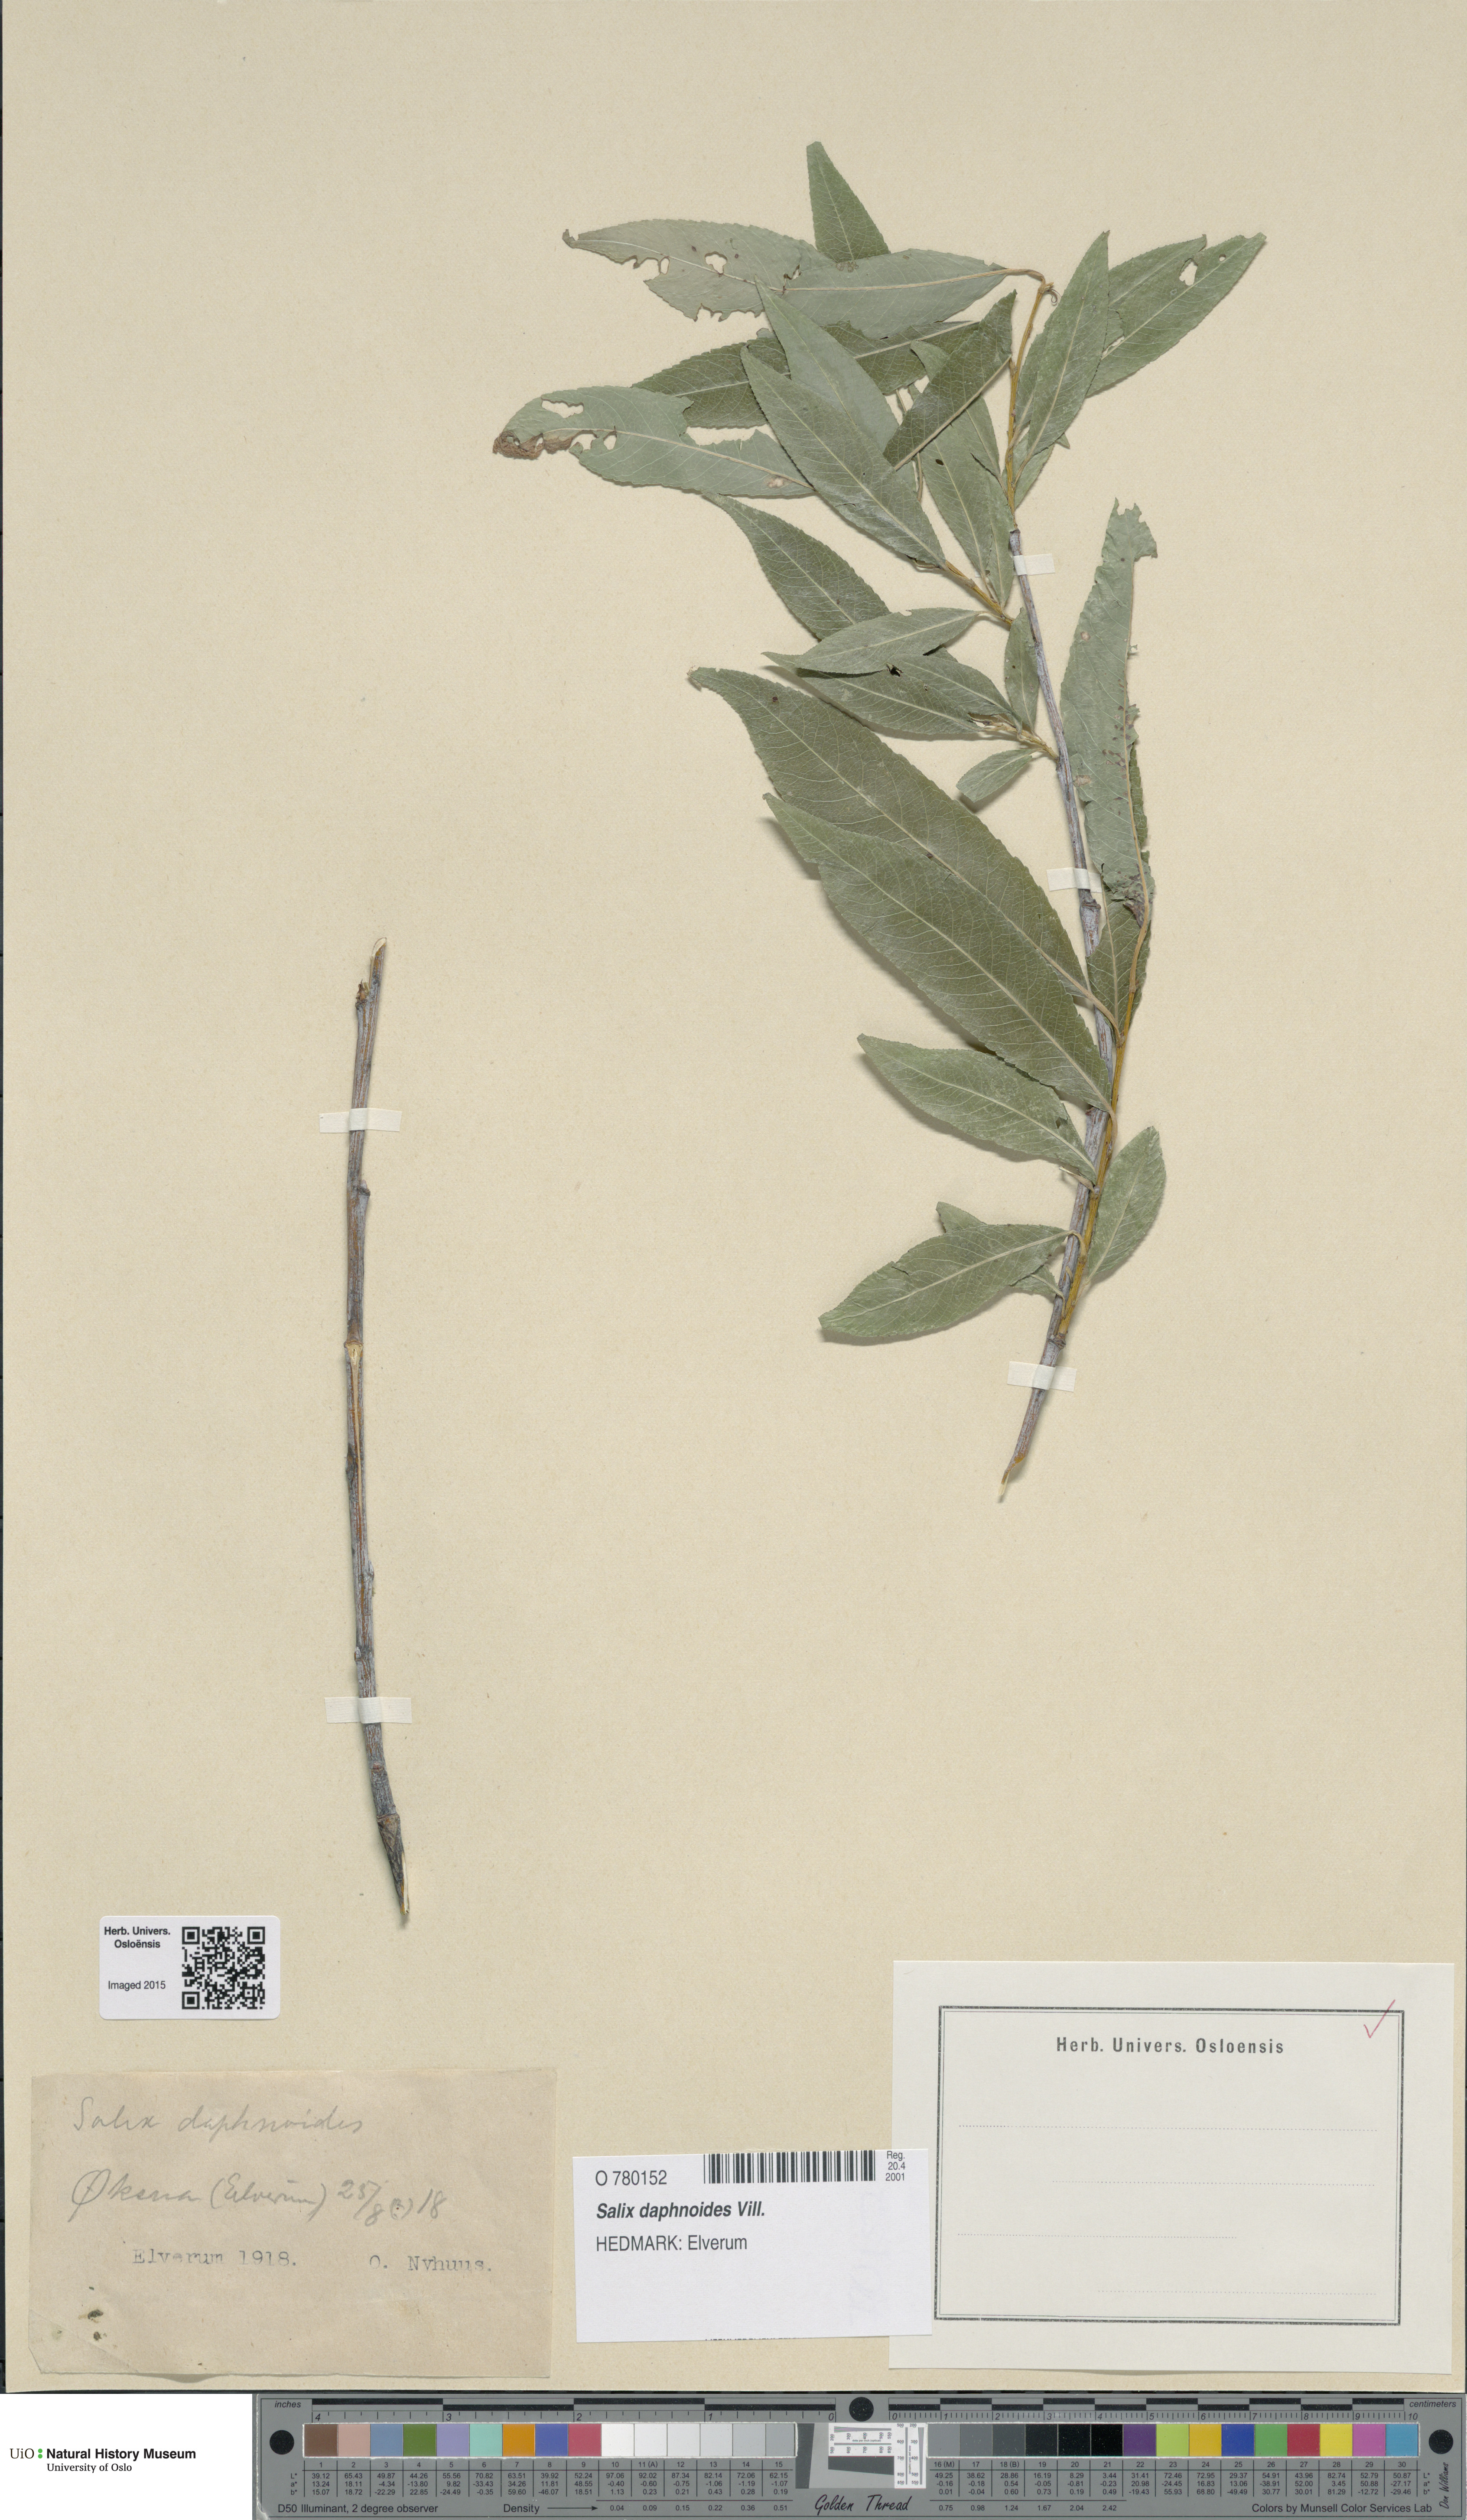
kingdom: Plantae
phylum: Tracheophyta
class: Magnoliopsida
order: Malpighiales
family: Salicaceae
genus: Salix
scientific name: Salix daphnoides
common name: European violet-willow
